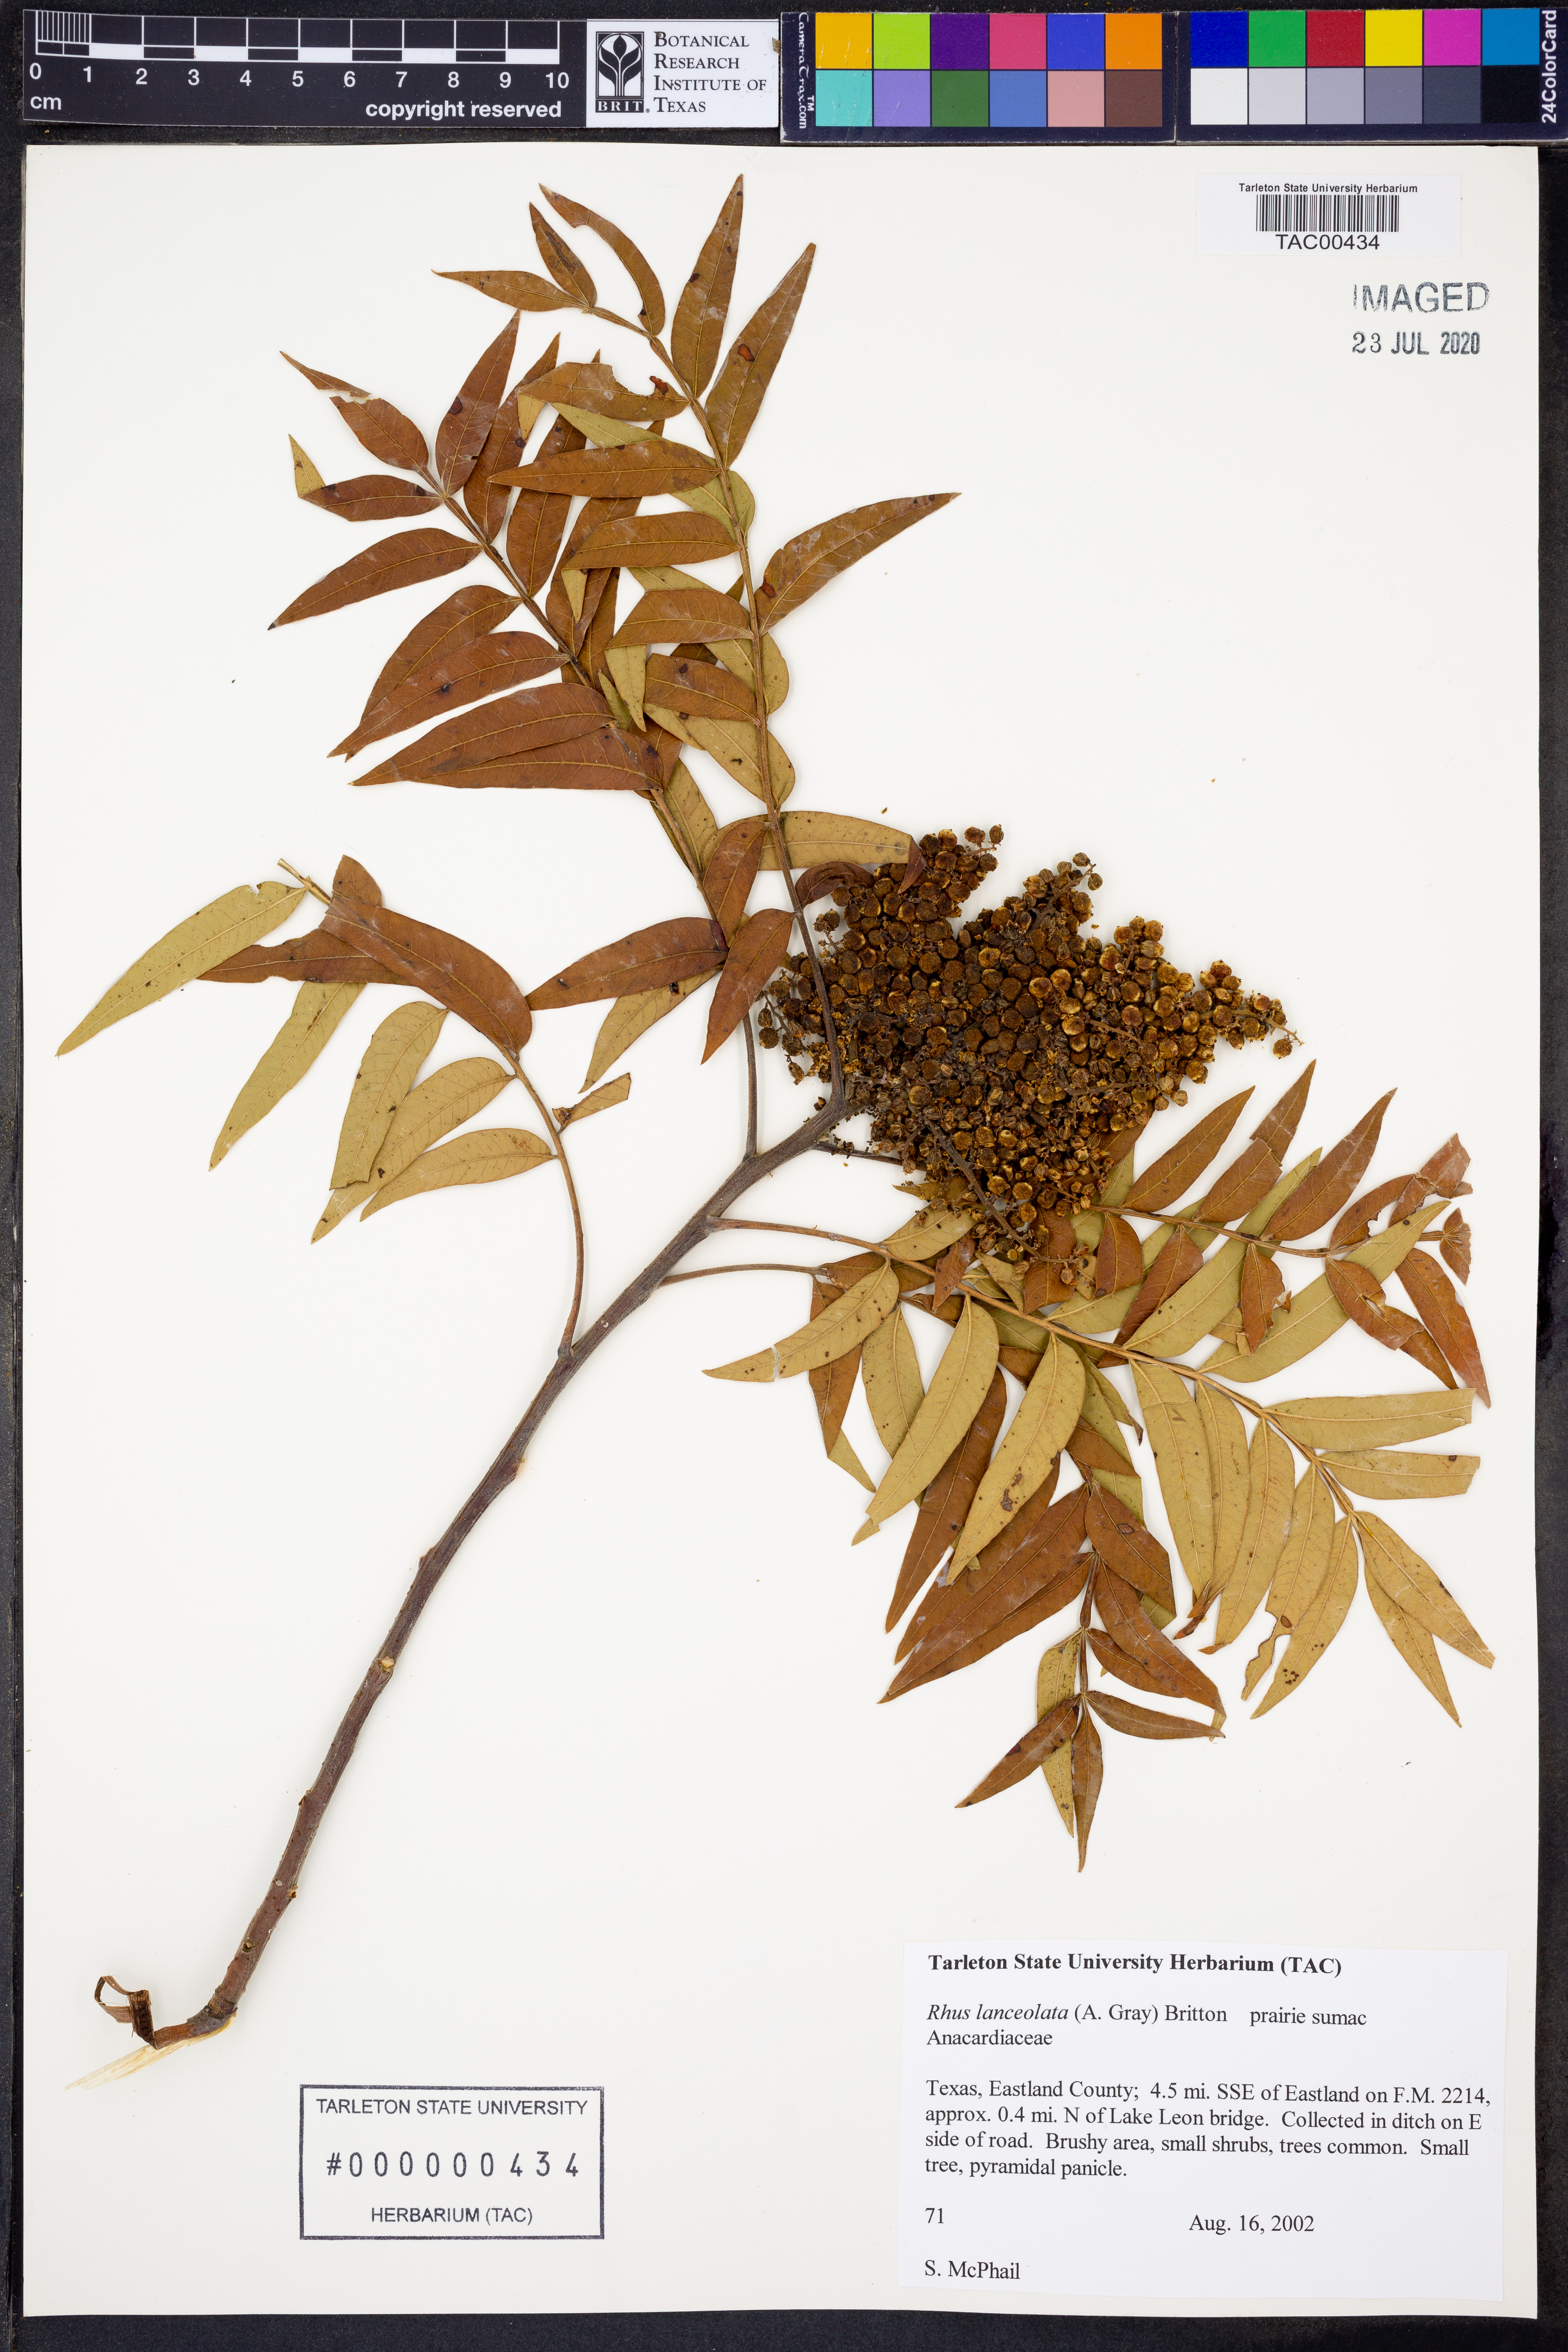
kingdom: Plantae
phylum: Tracheophyta
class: Magnoliopsida
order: Sapindales
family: Anacardiaceae
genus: Rhus
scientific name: Rhus lanceolata
